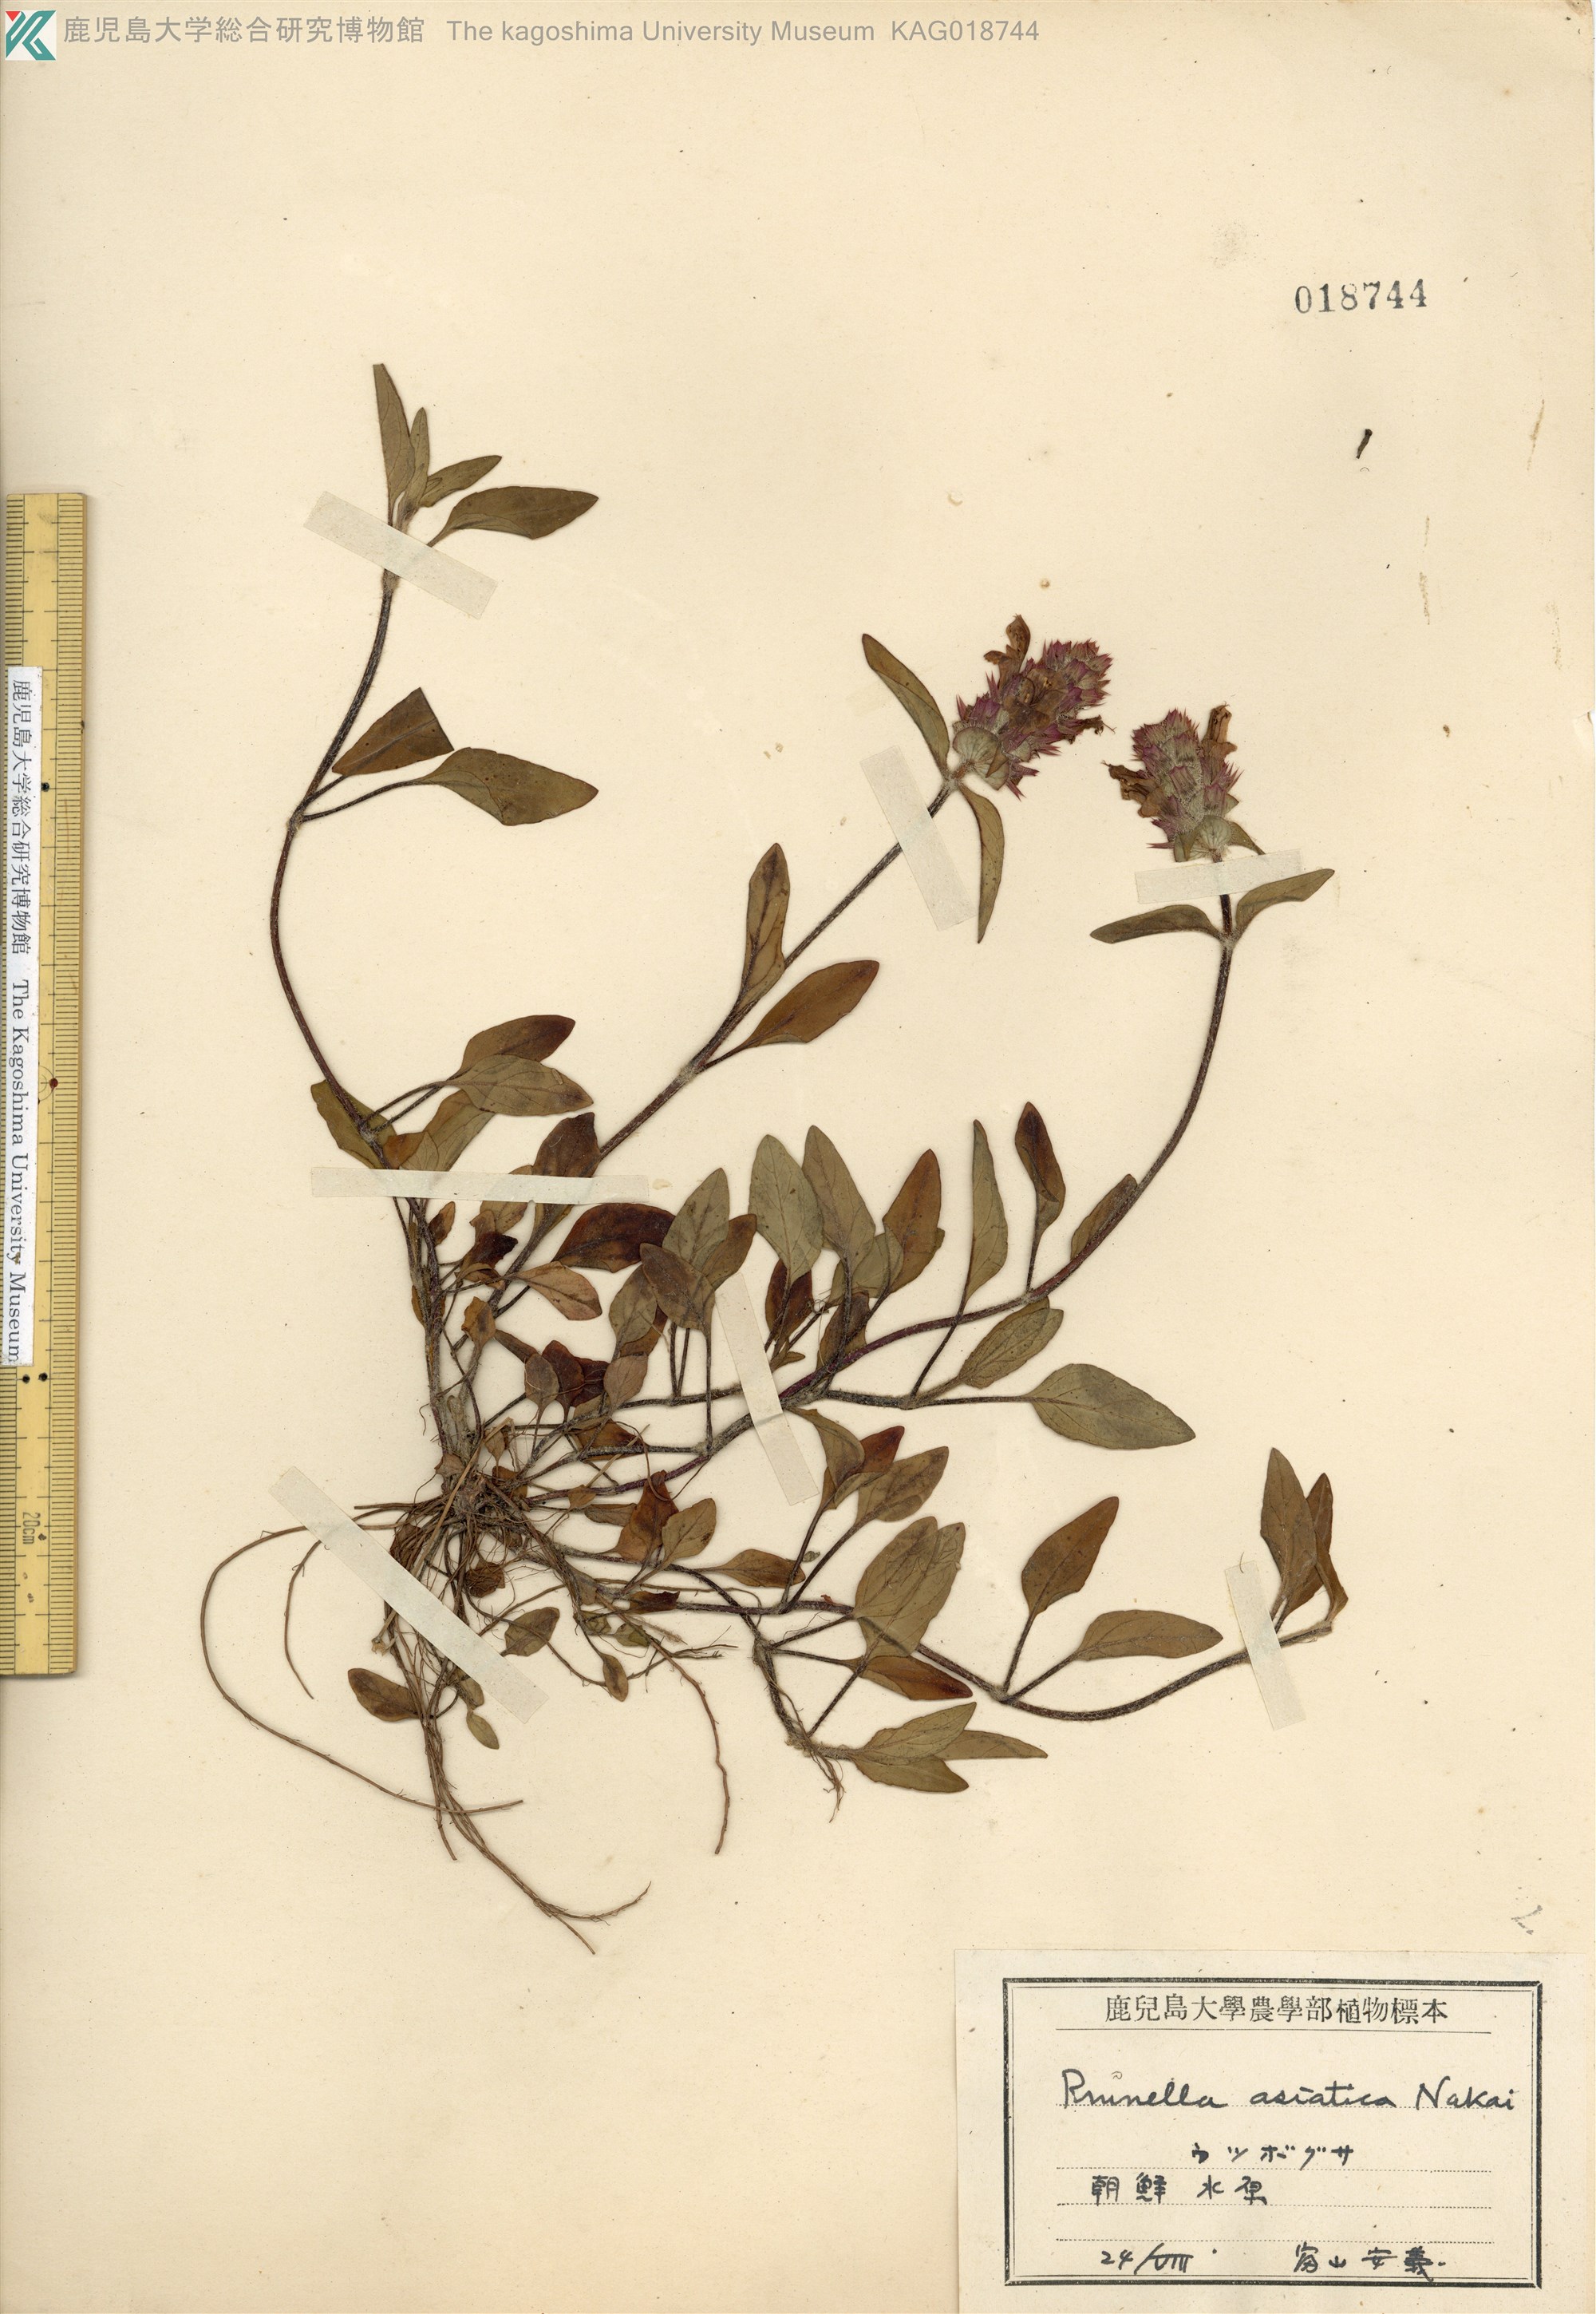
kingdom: Plantae
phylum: Tracheophyta
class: Magnoliopsida
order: Lamiales
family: Lamiaceae
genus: Prunella
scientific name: Prunella vulgaris
